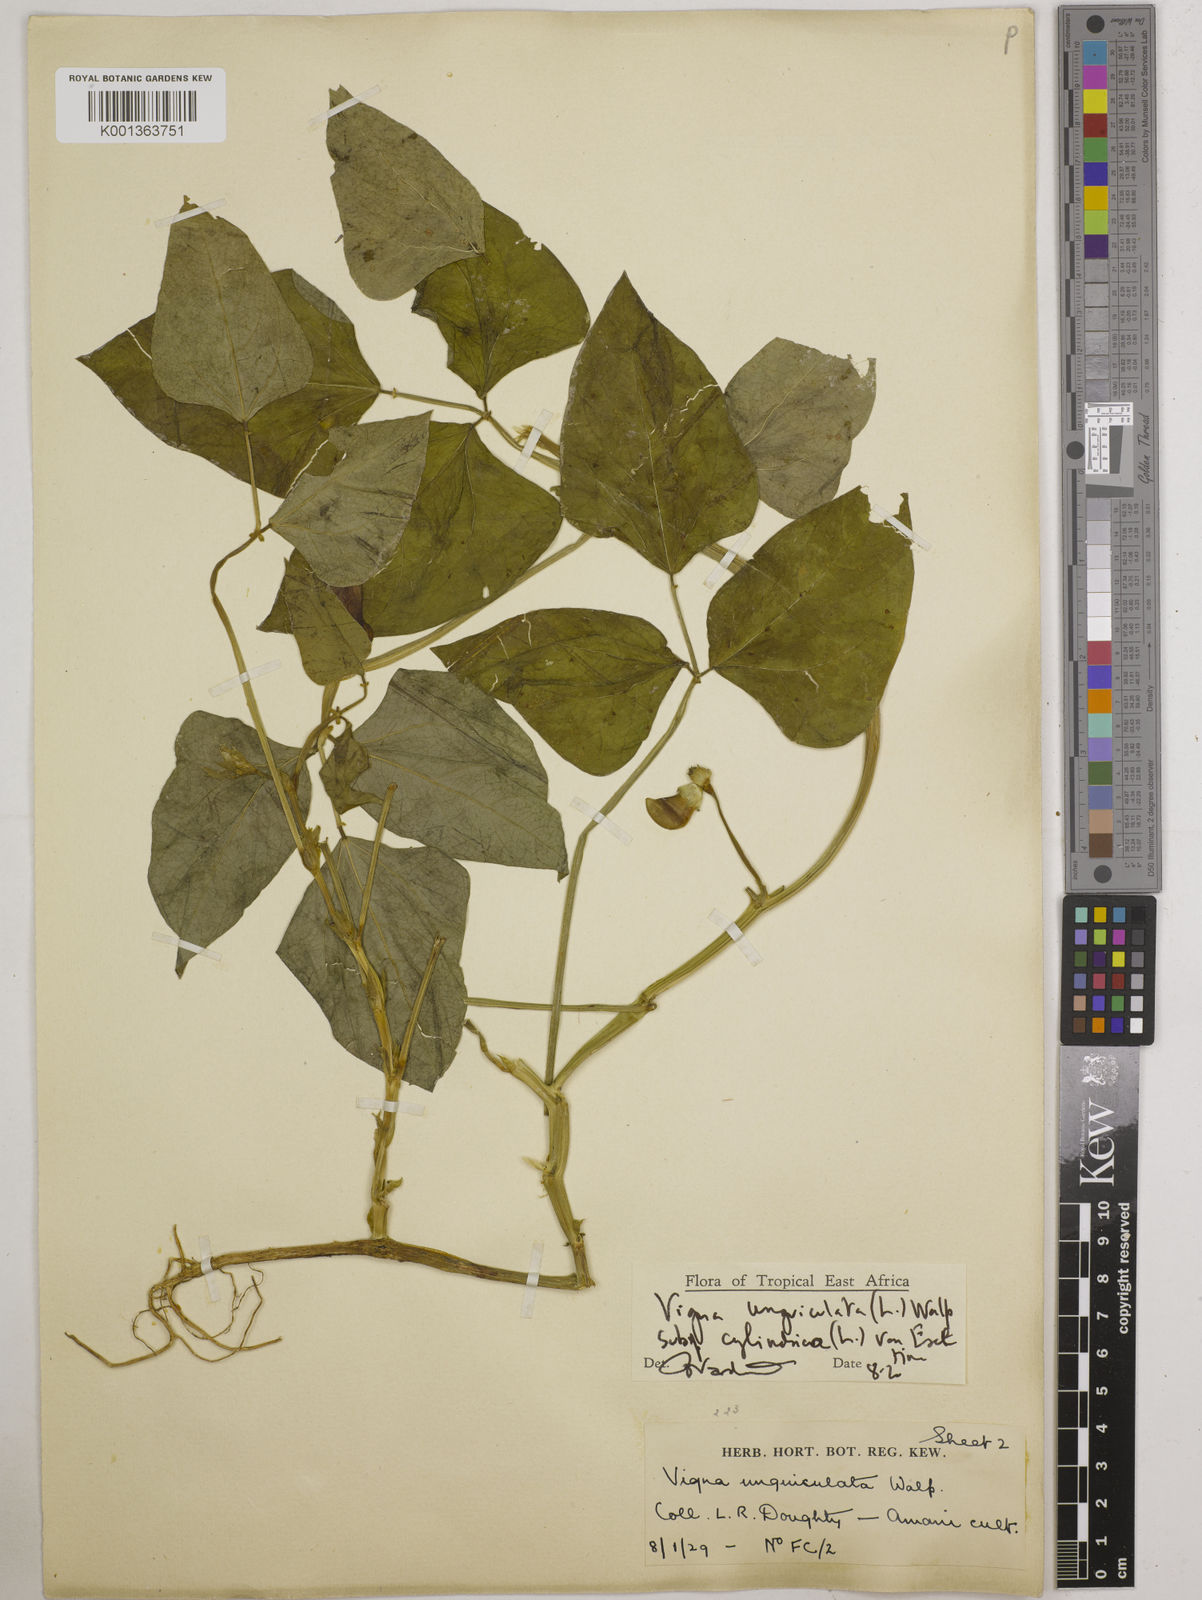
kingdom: Plantae
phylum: Tracheophyta
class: Magnoliopsida
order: Fabales
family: Fabaceae
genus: Vigna
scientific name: Vigna
